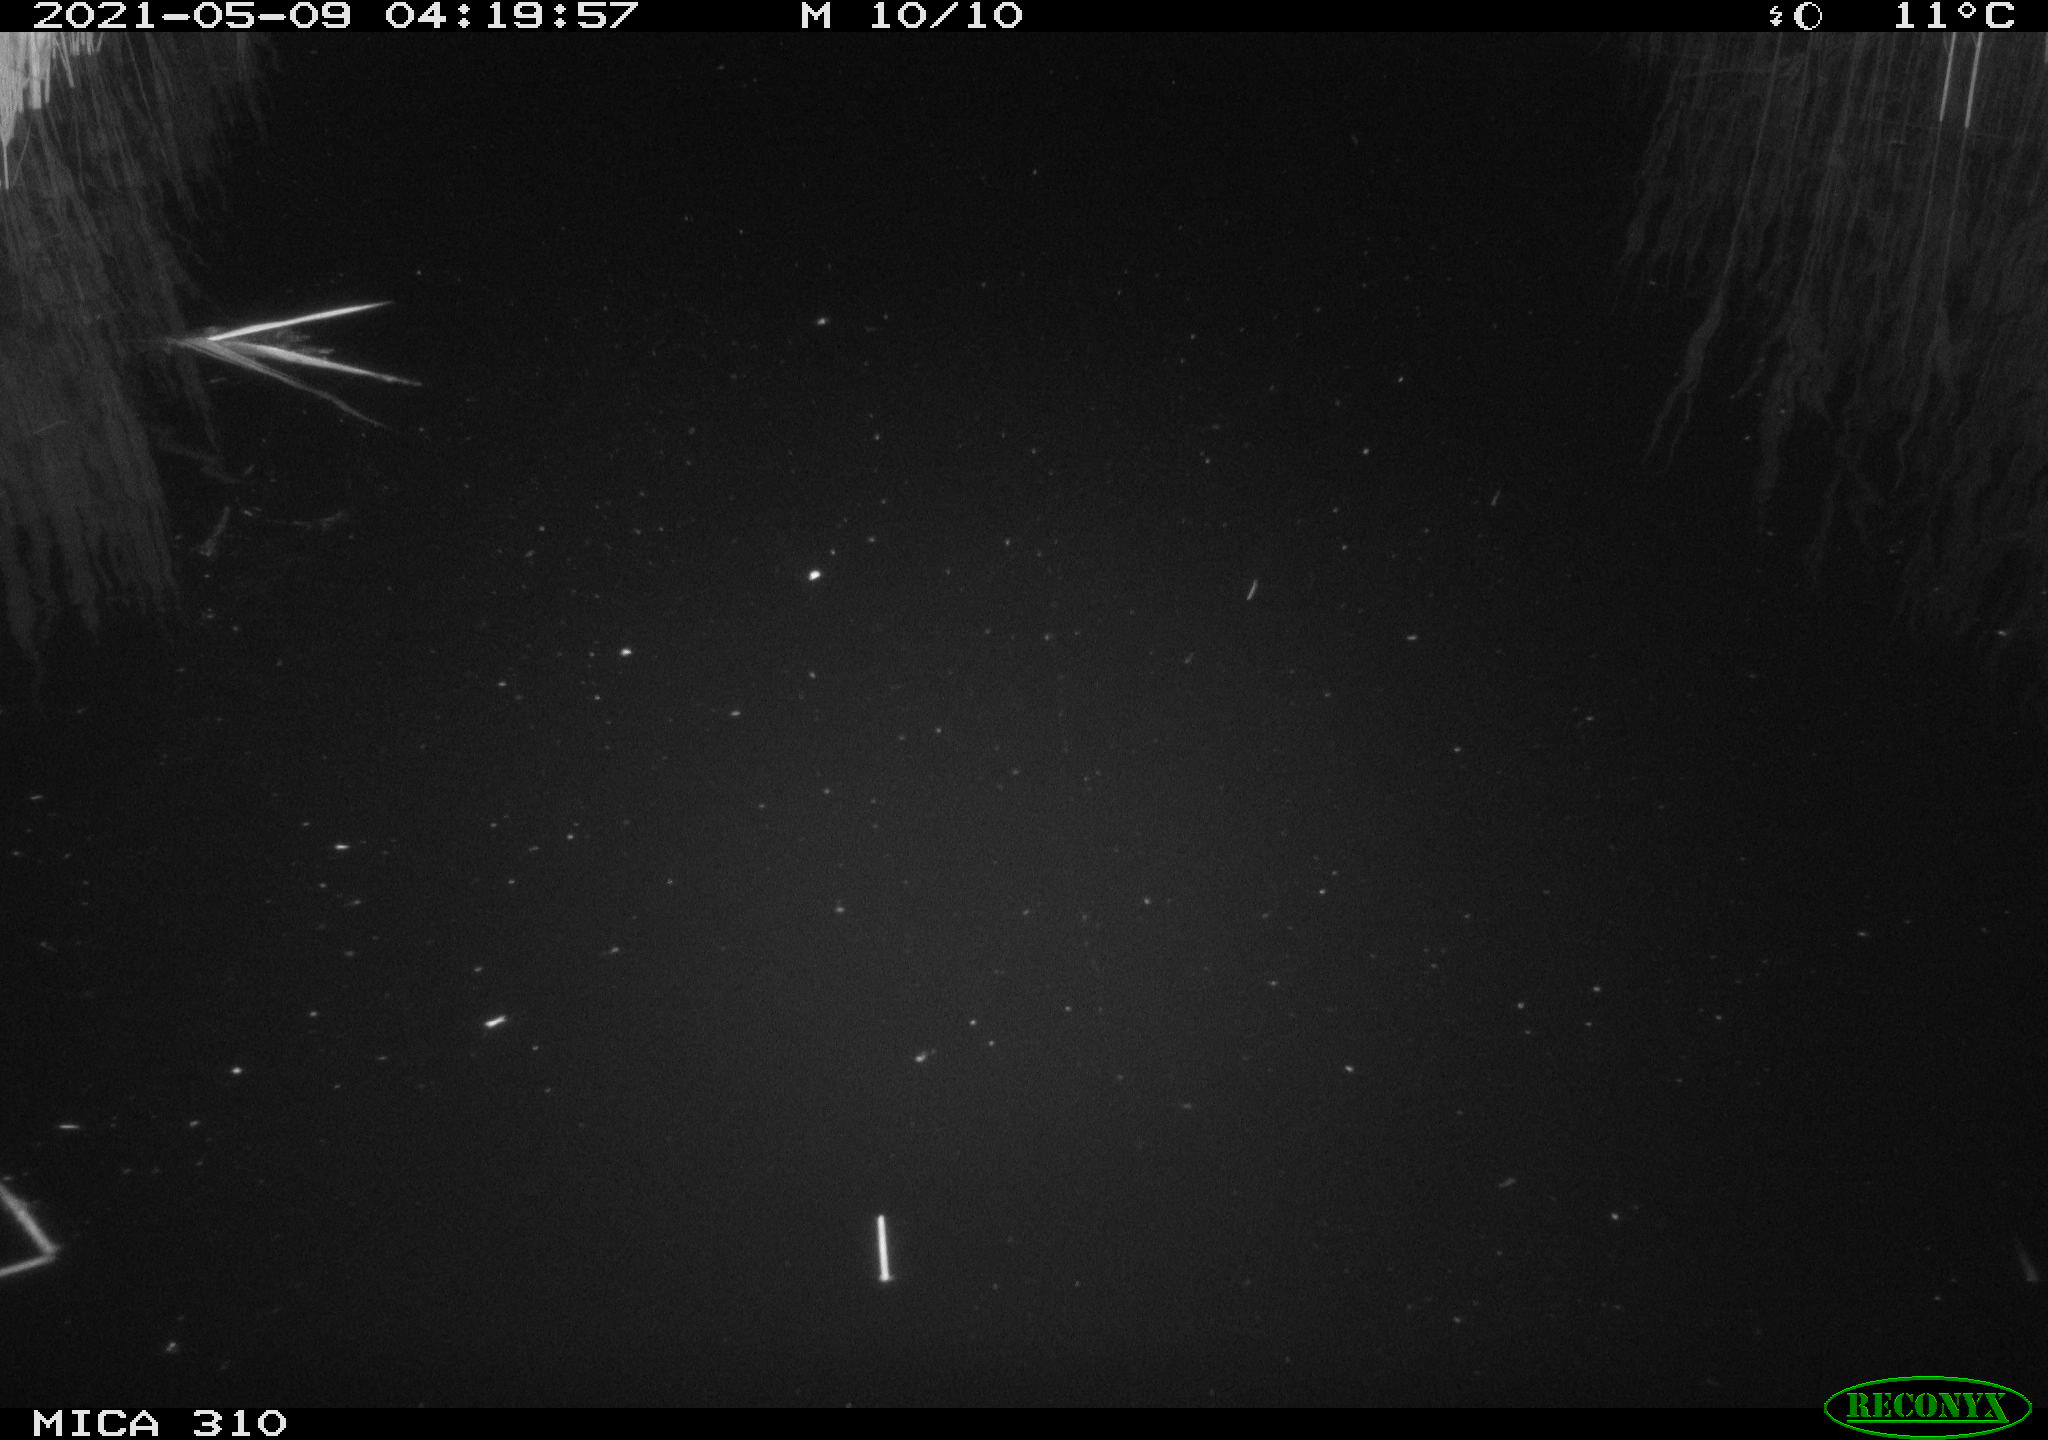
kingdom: Animalia
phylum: Chordata
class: Mammalia
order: Rodentia
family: Muridae
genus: Rattus
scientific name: Rattus norvegicus
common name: Brown rat
